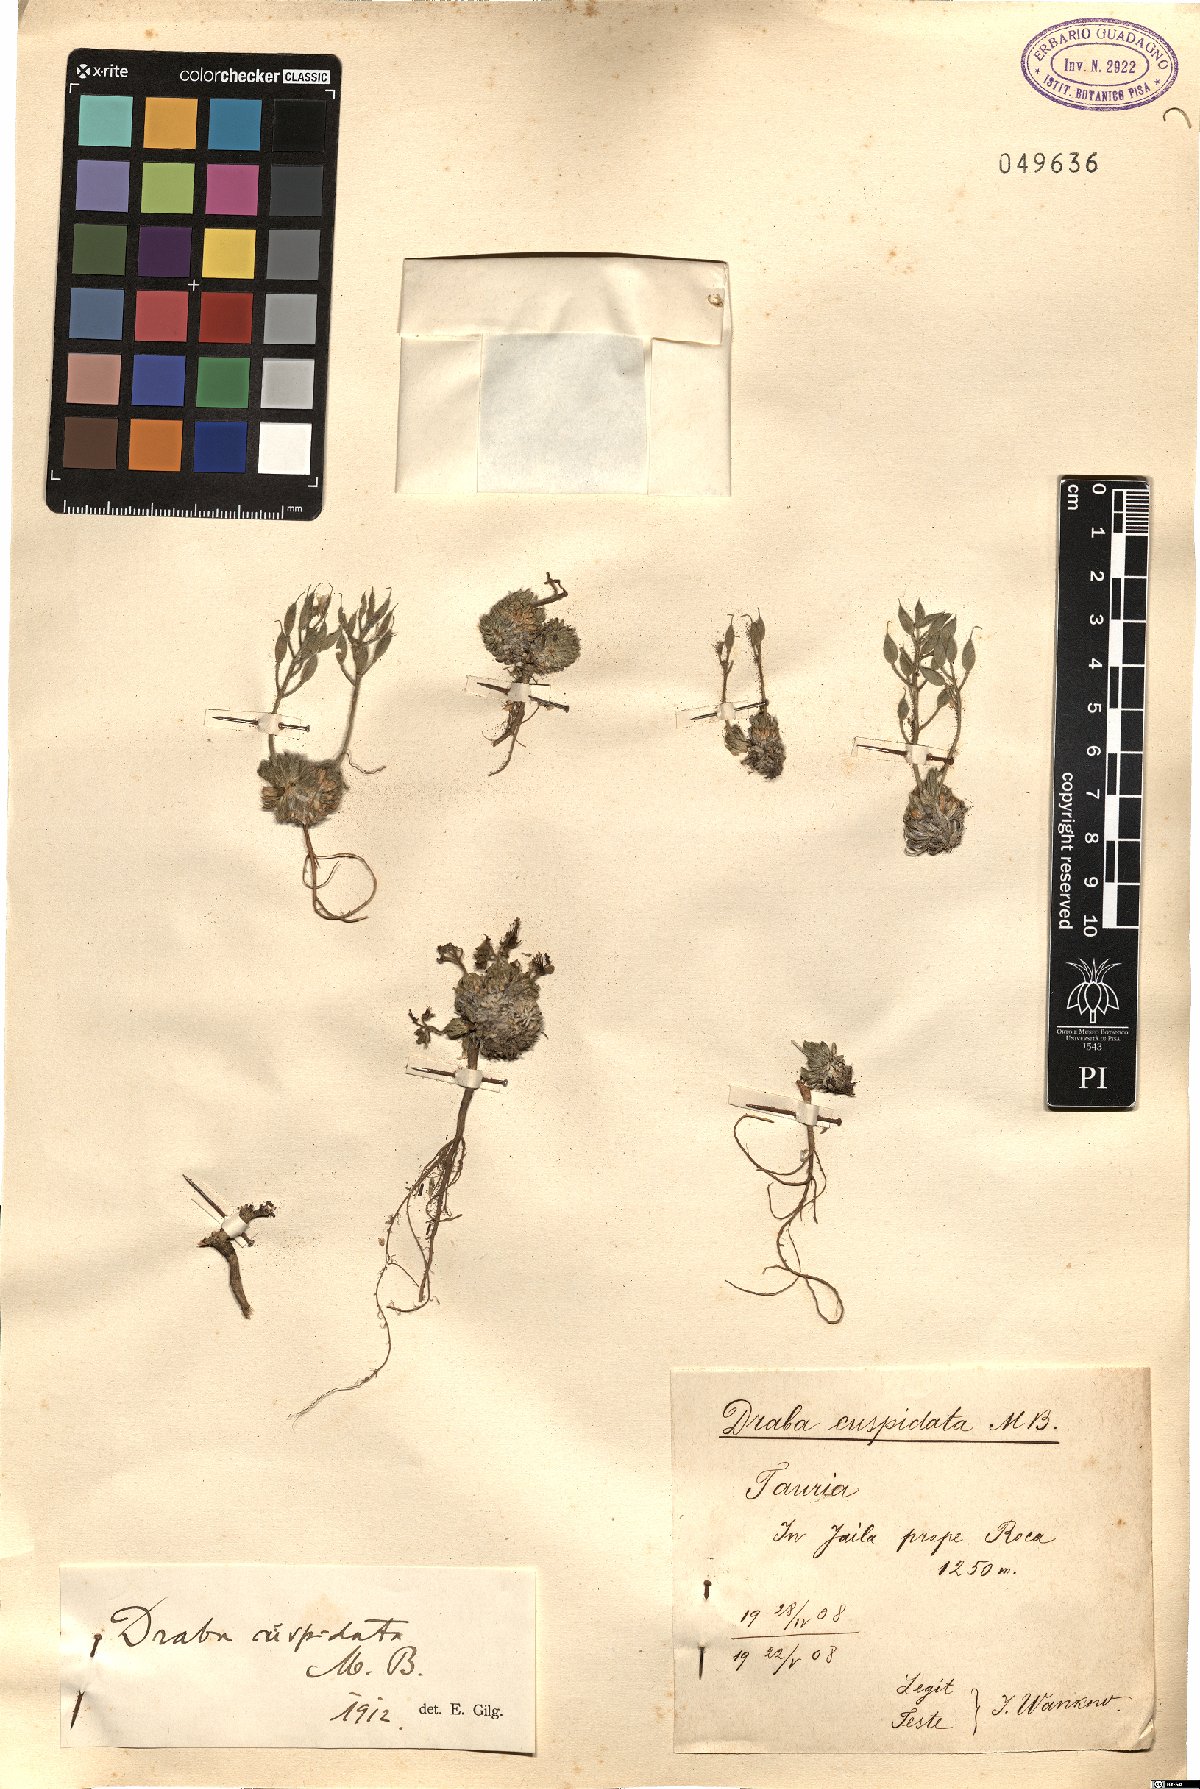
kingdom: Plantae
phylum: Tracheophyta
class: Magnoliopsida
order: Brassicales
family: Brassicaceae
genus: Draba
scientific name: Draba cuspidata
